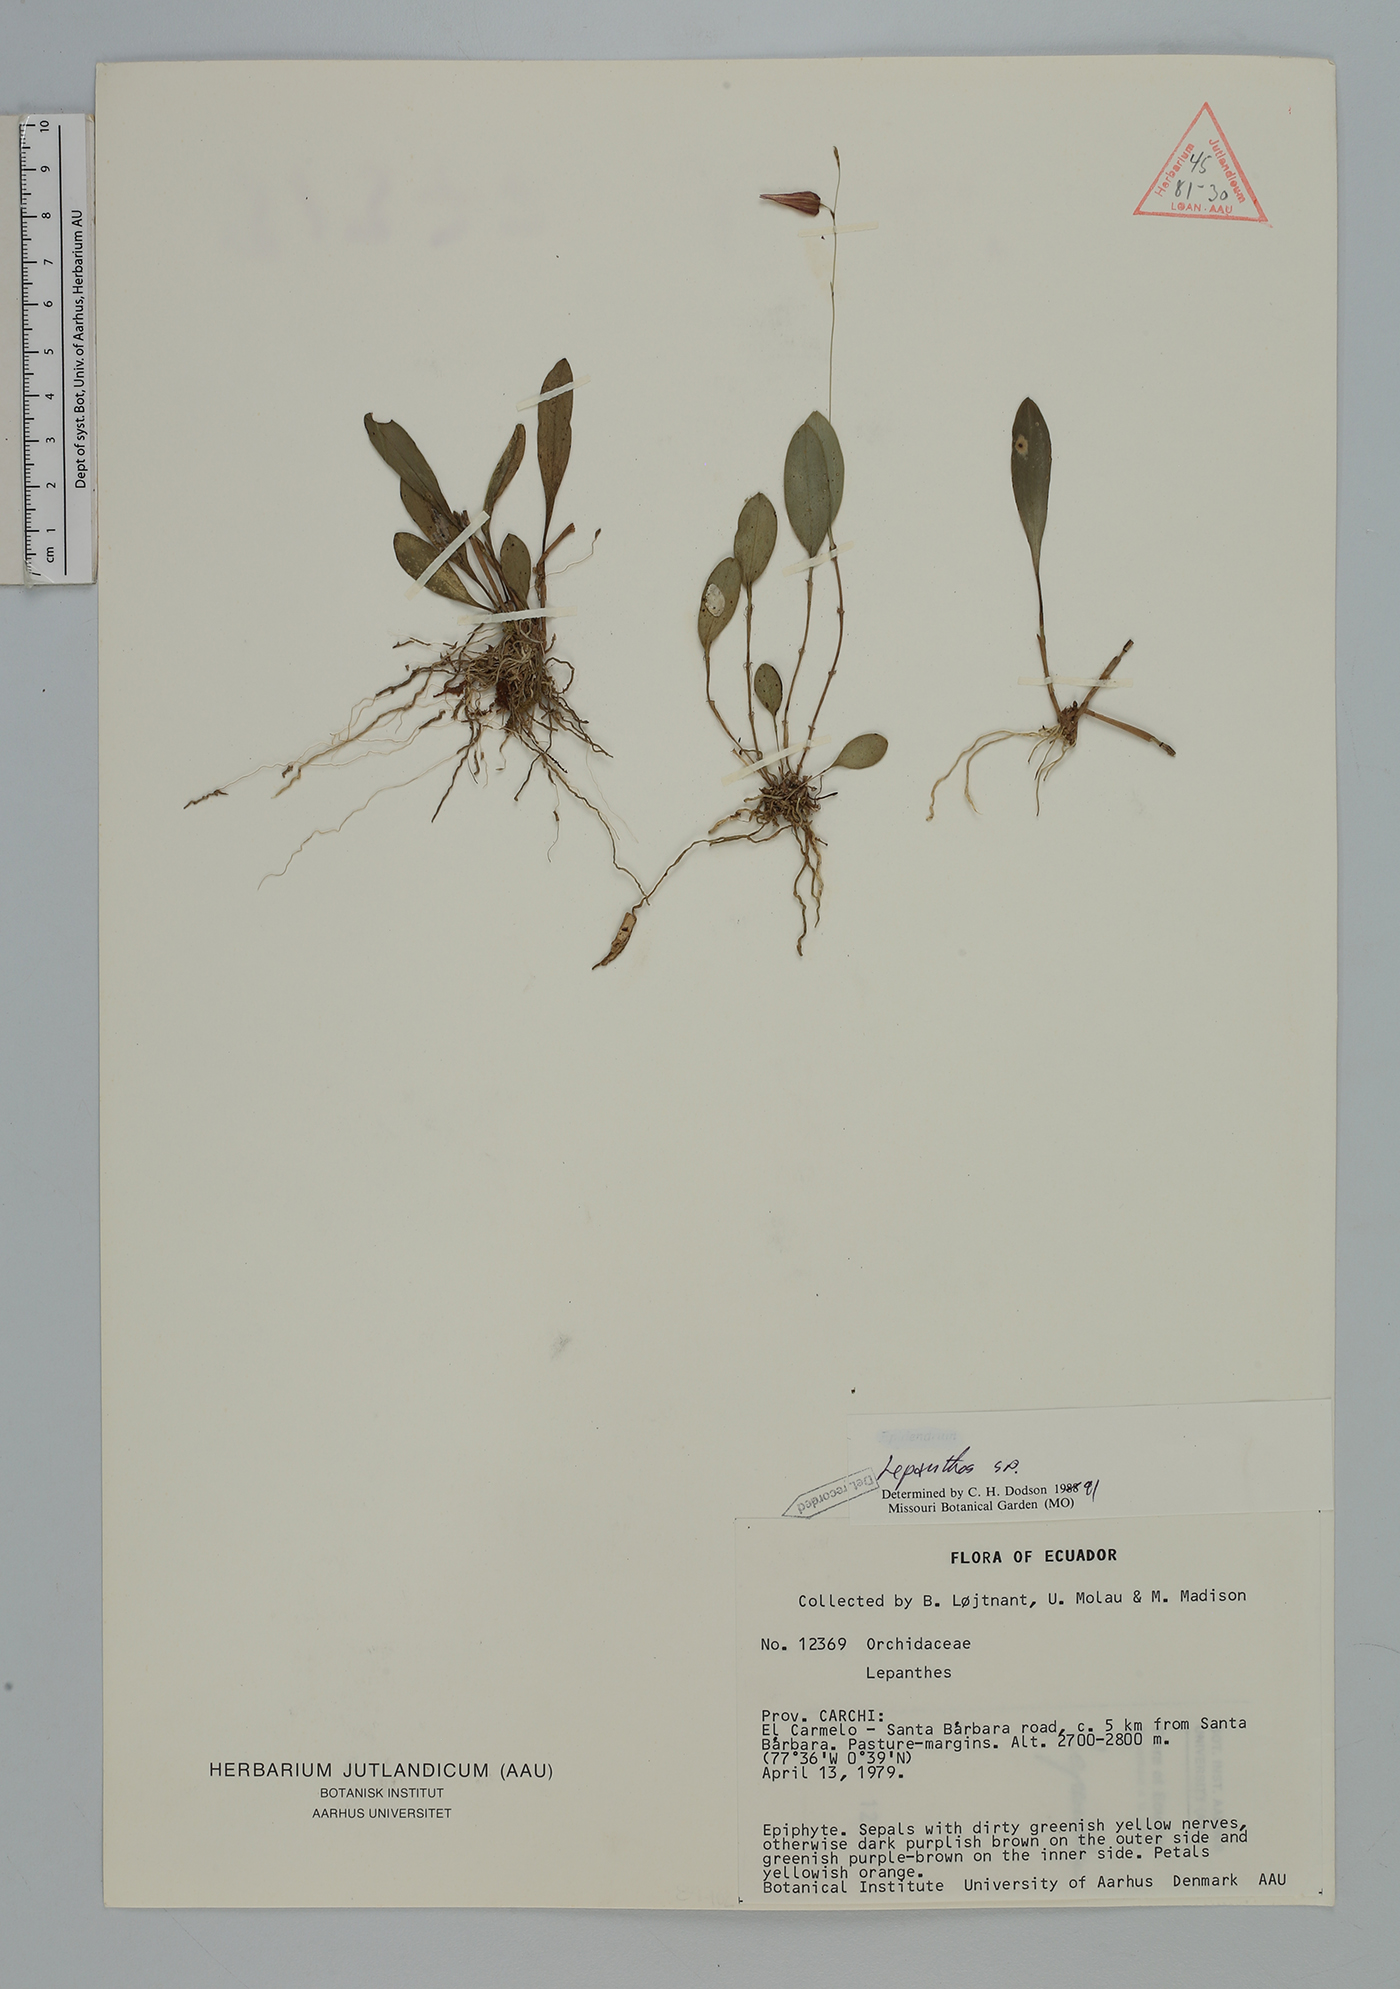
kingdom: Plantae
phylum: Tracheophyta
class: Liliopsida
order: Asparagales
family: Orchidaceae
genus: Lepanthes
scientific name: Lepanthes
